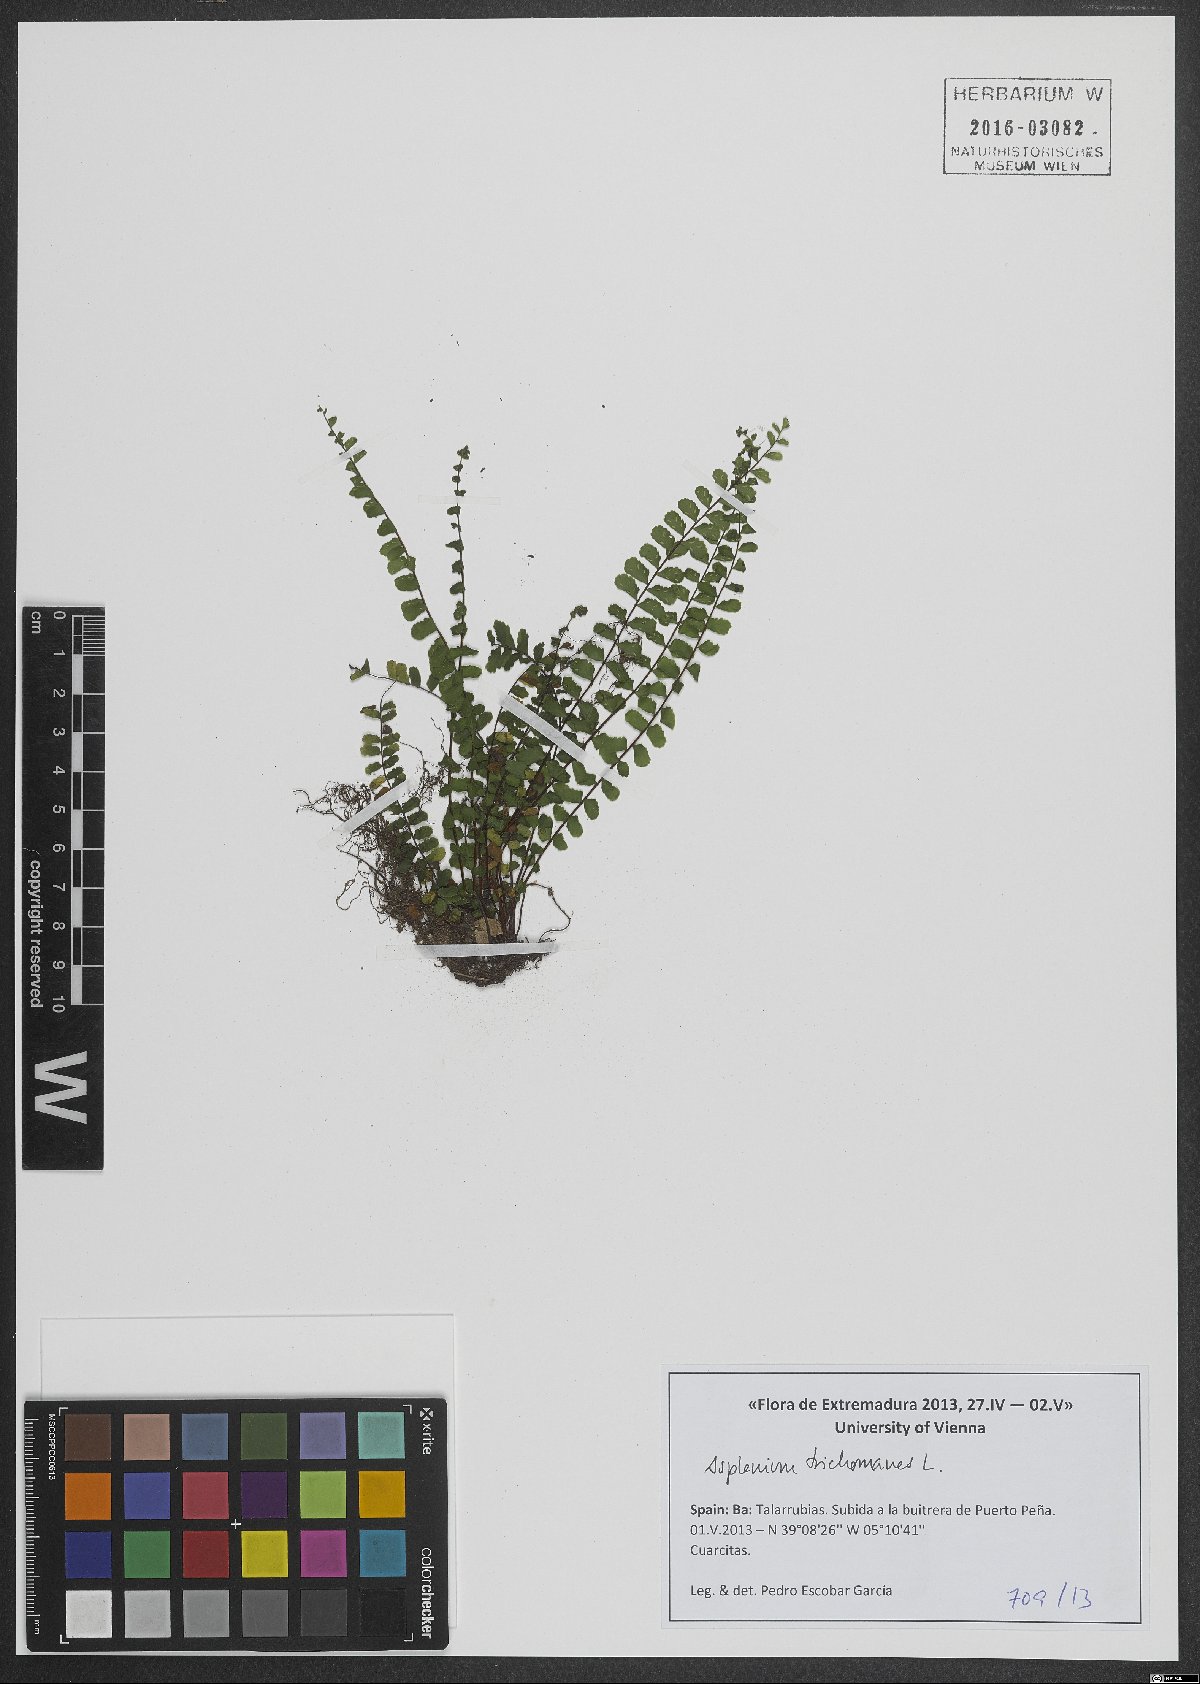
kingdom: Plantae
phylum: Tracheophyta
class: Polypodiopsida
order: Polypodiales
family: Aspleniaceae
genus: Asplenium
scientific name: Asplenium trichomanes
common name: Maidenhair spleenwort
